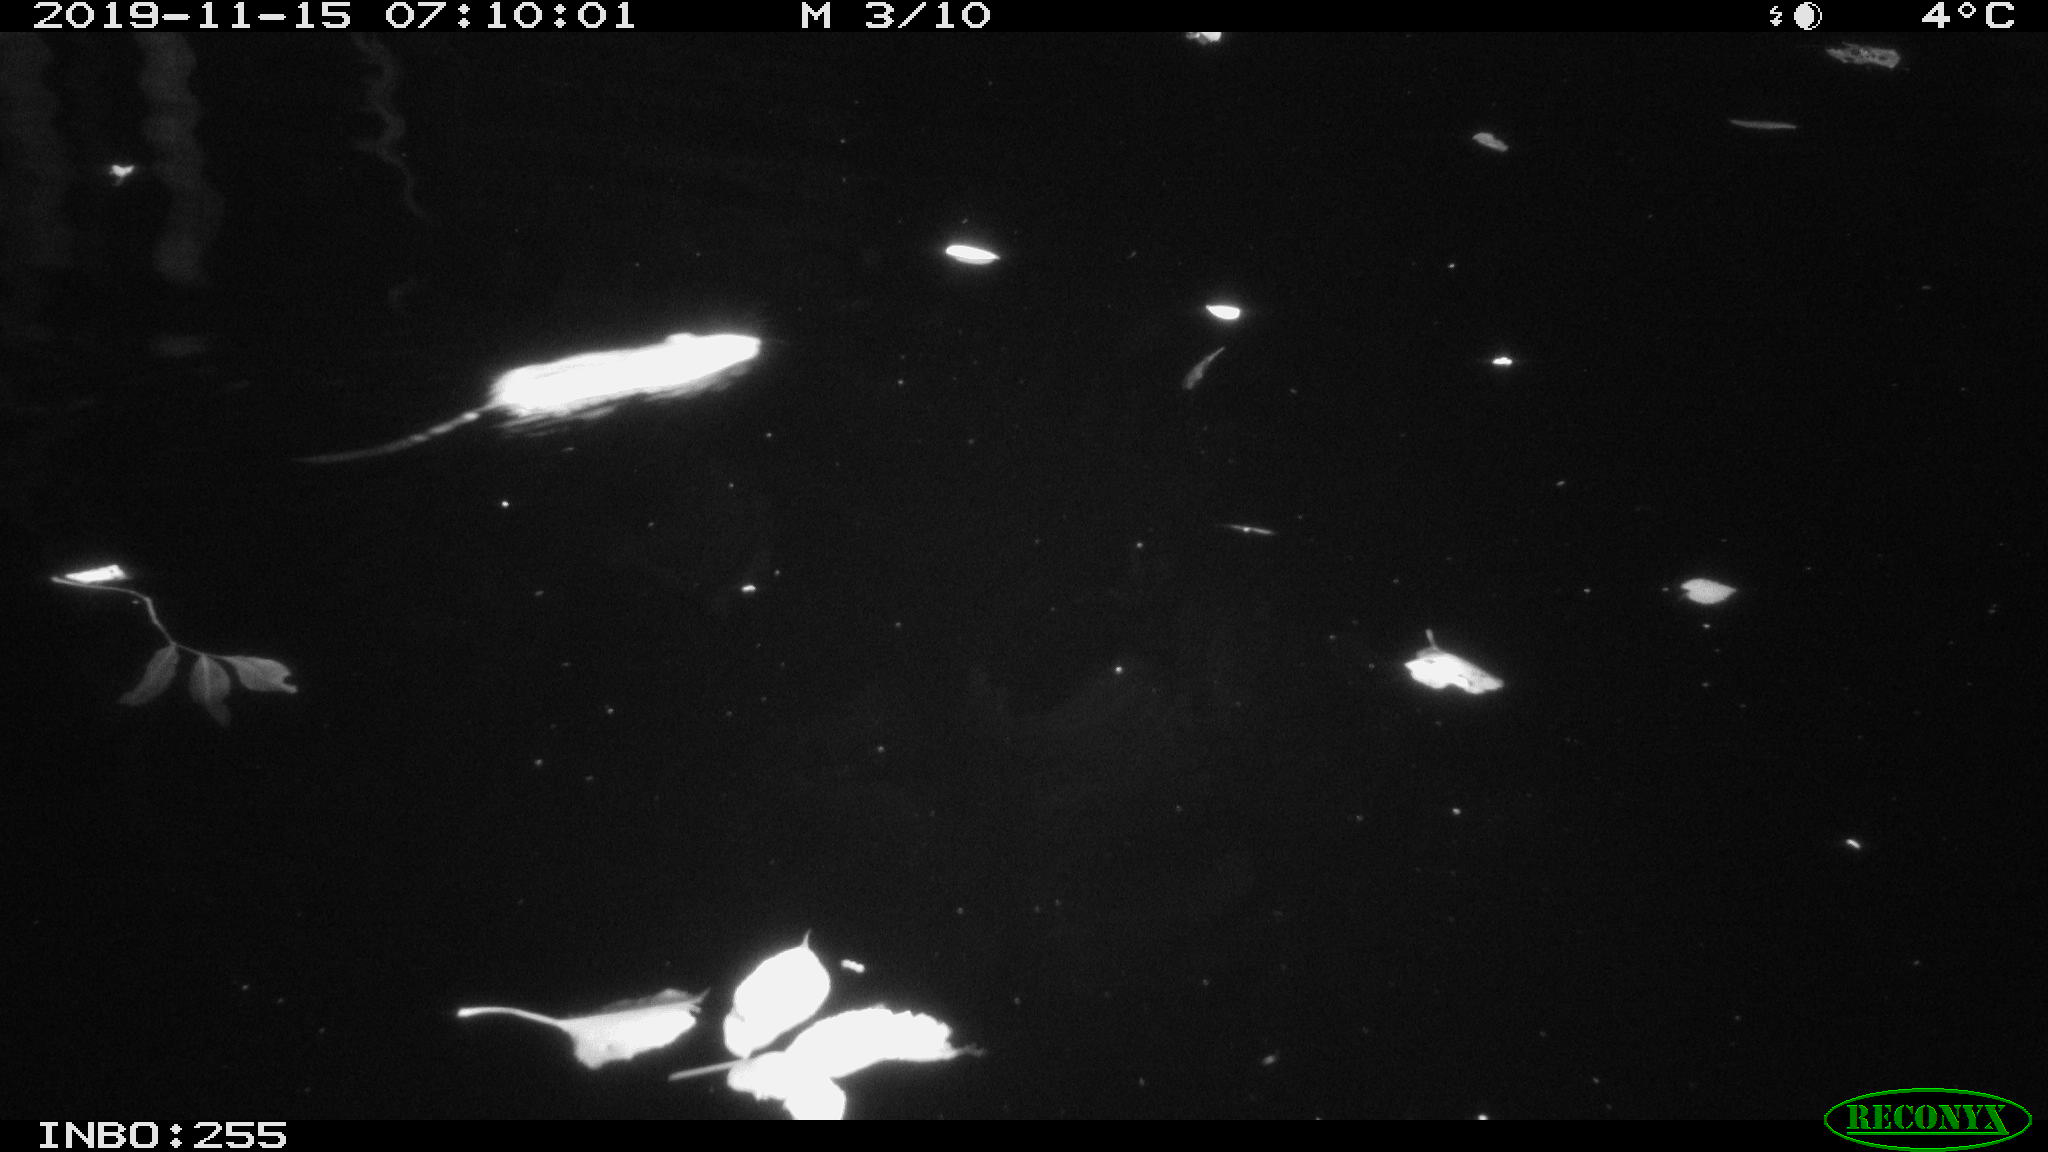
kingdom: Animalia
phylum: Chordata
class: Mammalia
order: Rodentia
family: Muridae
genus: Rattus
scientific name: Rattus norvegicus
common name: Brown rat
